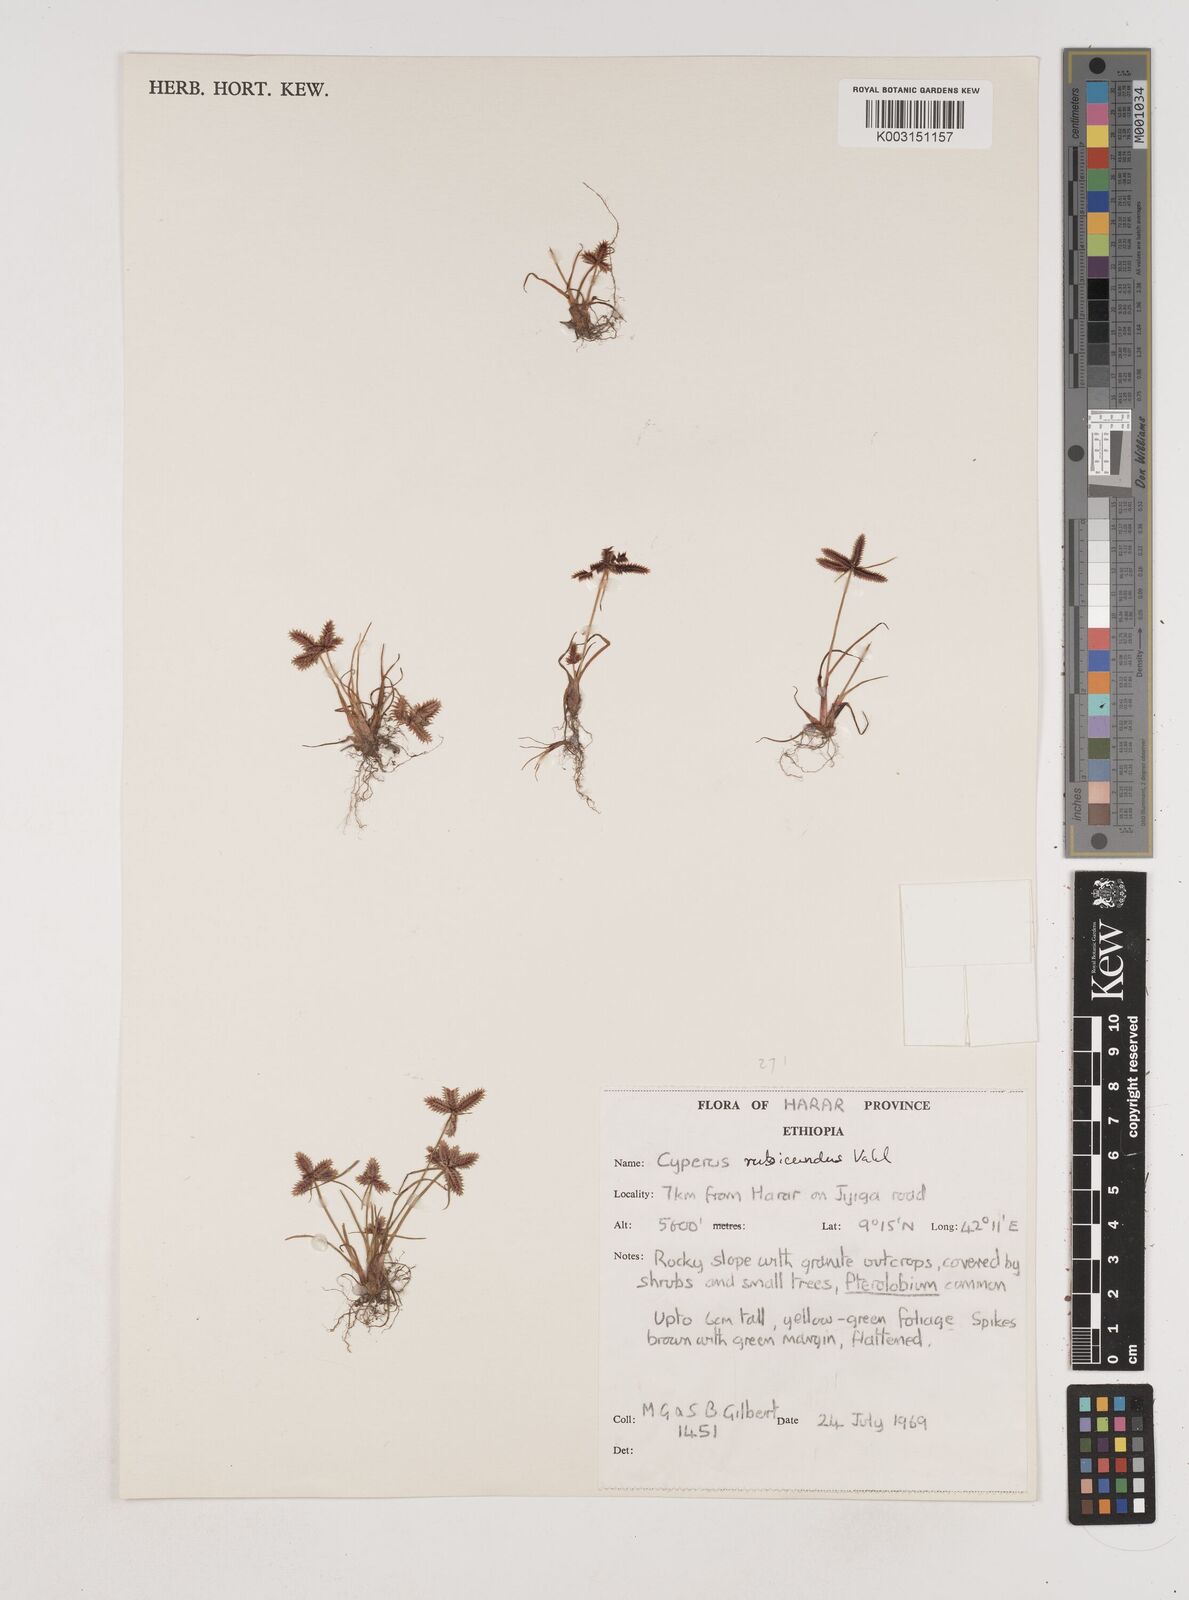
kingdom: Plantae
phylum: Tracheophyta
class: Liliopsida
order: Poales
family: Cyperaceae
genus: Cyperus
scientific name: Cyperus rubicundus
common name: Coco-grass
